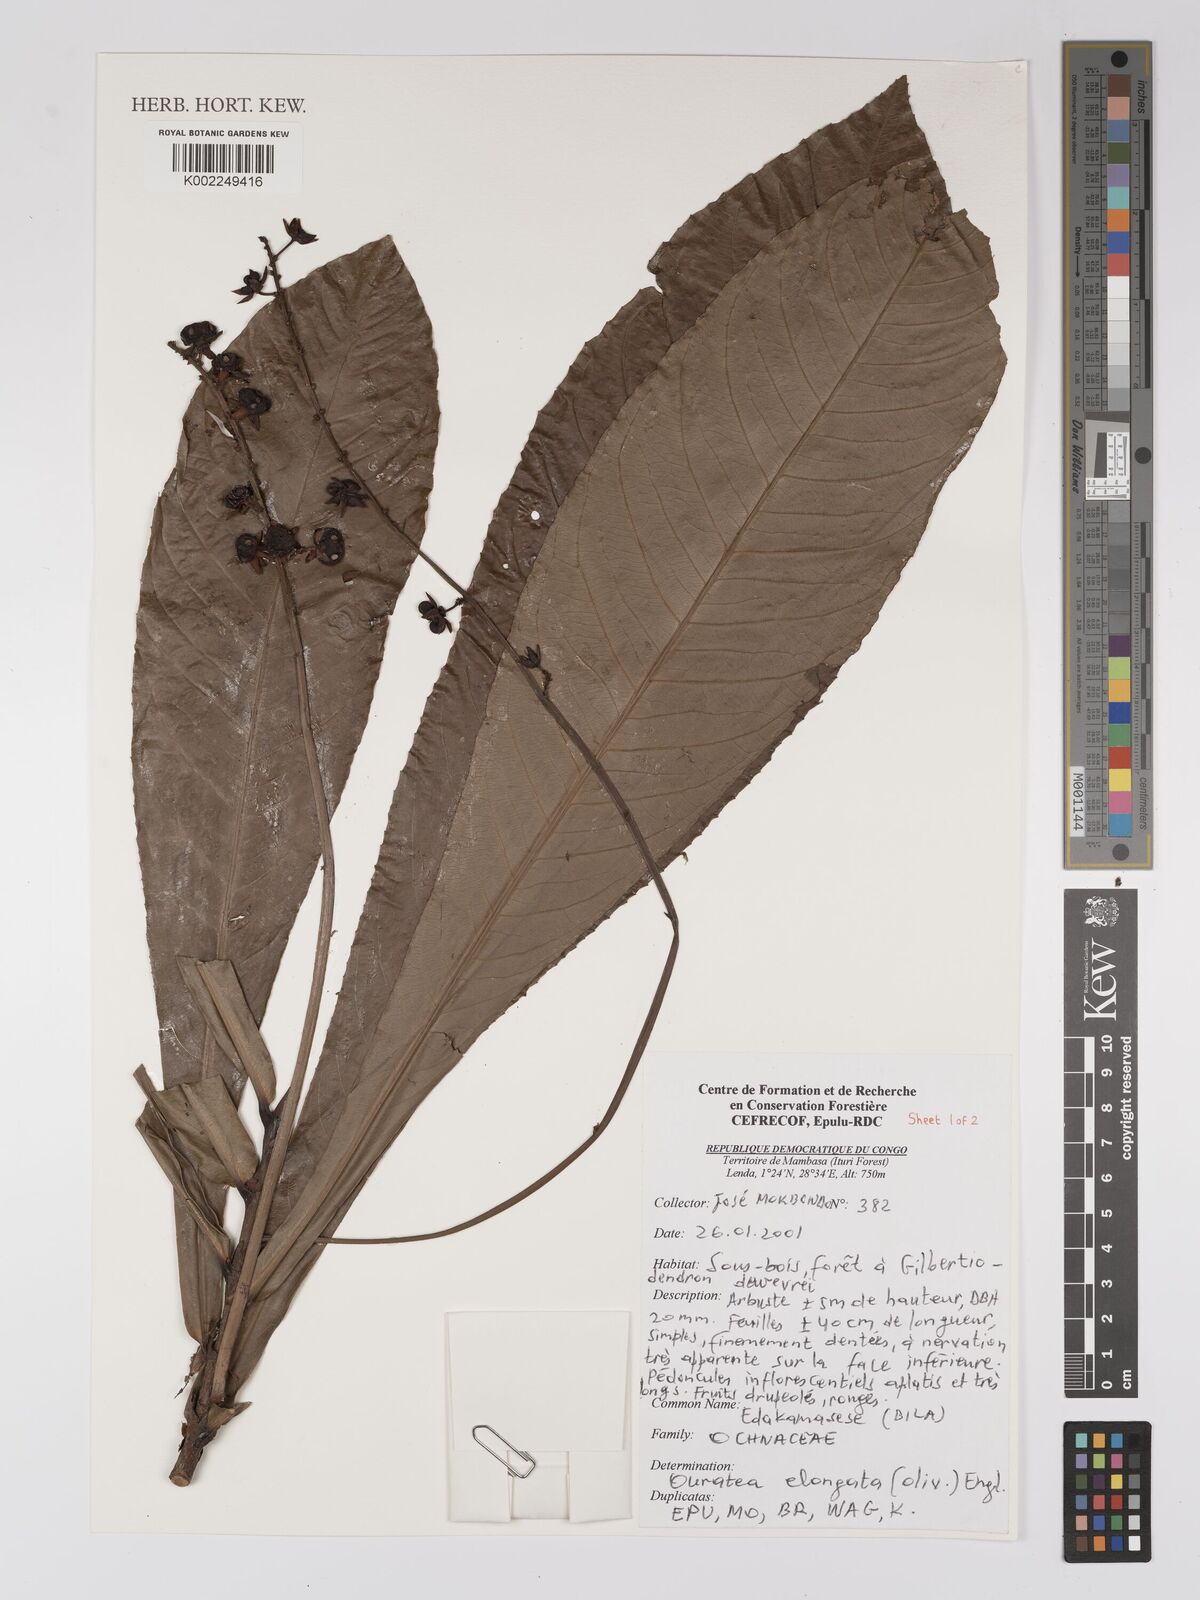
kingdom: Plantae
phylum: Tracheophyta
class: Magnoliopsida
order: Malpighiales
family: Ochnaceae
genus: Gomphia
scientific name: Gomphia elongata
